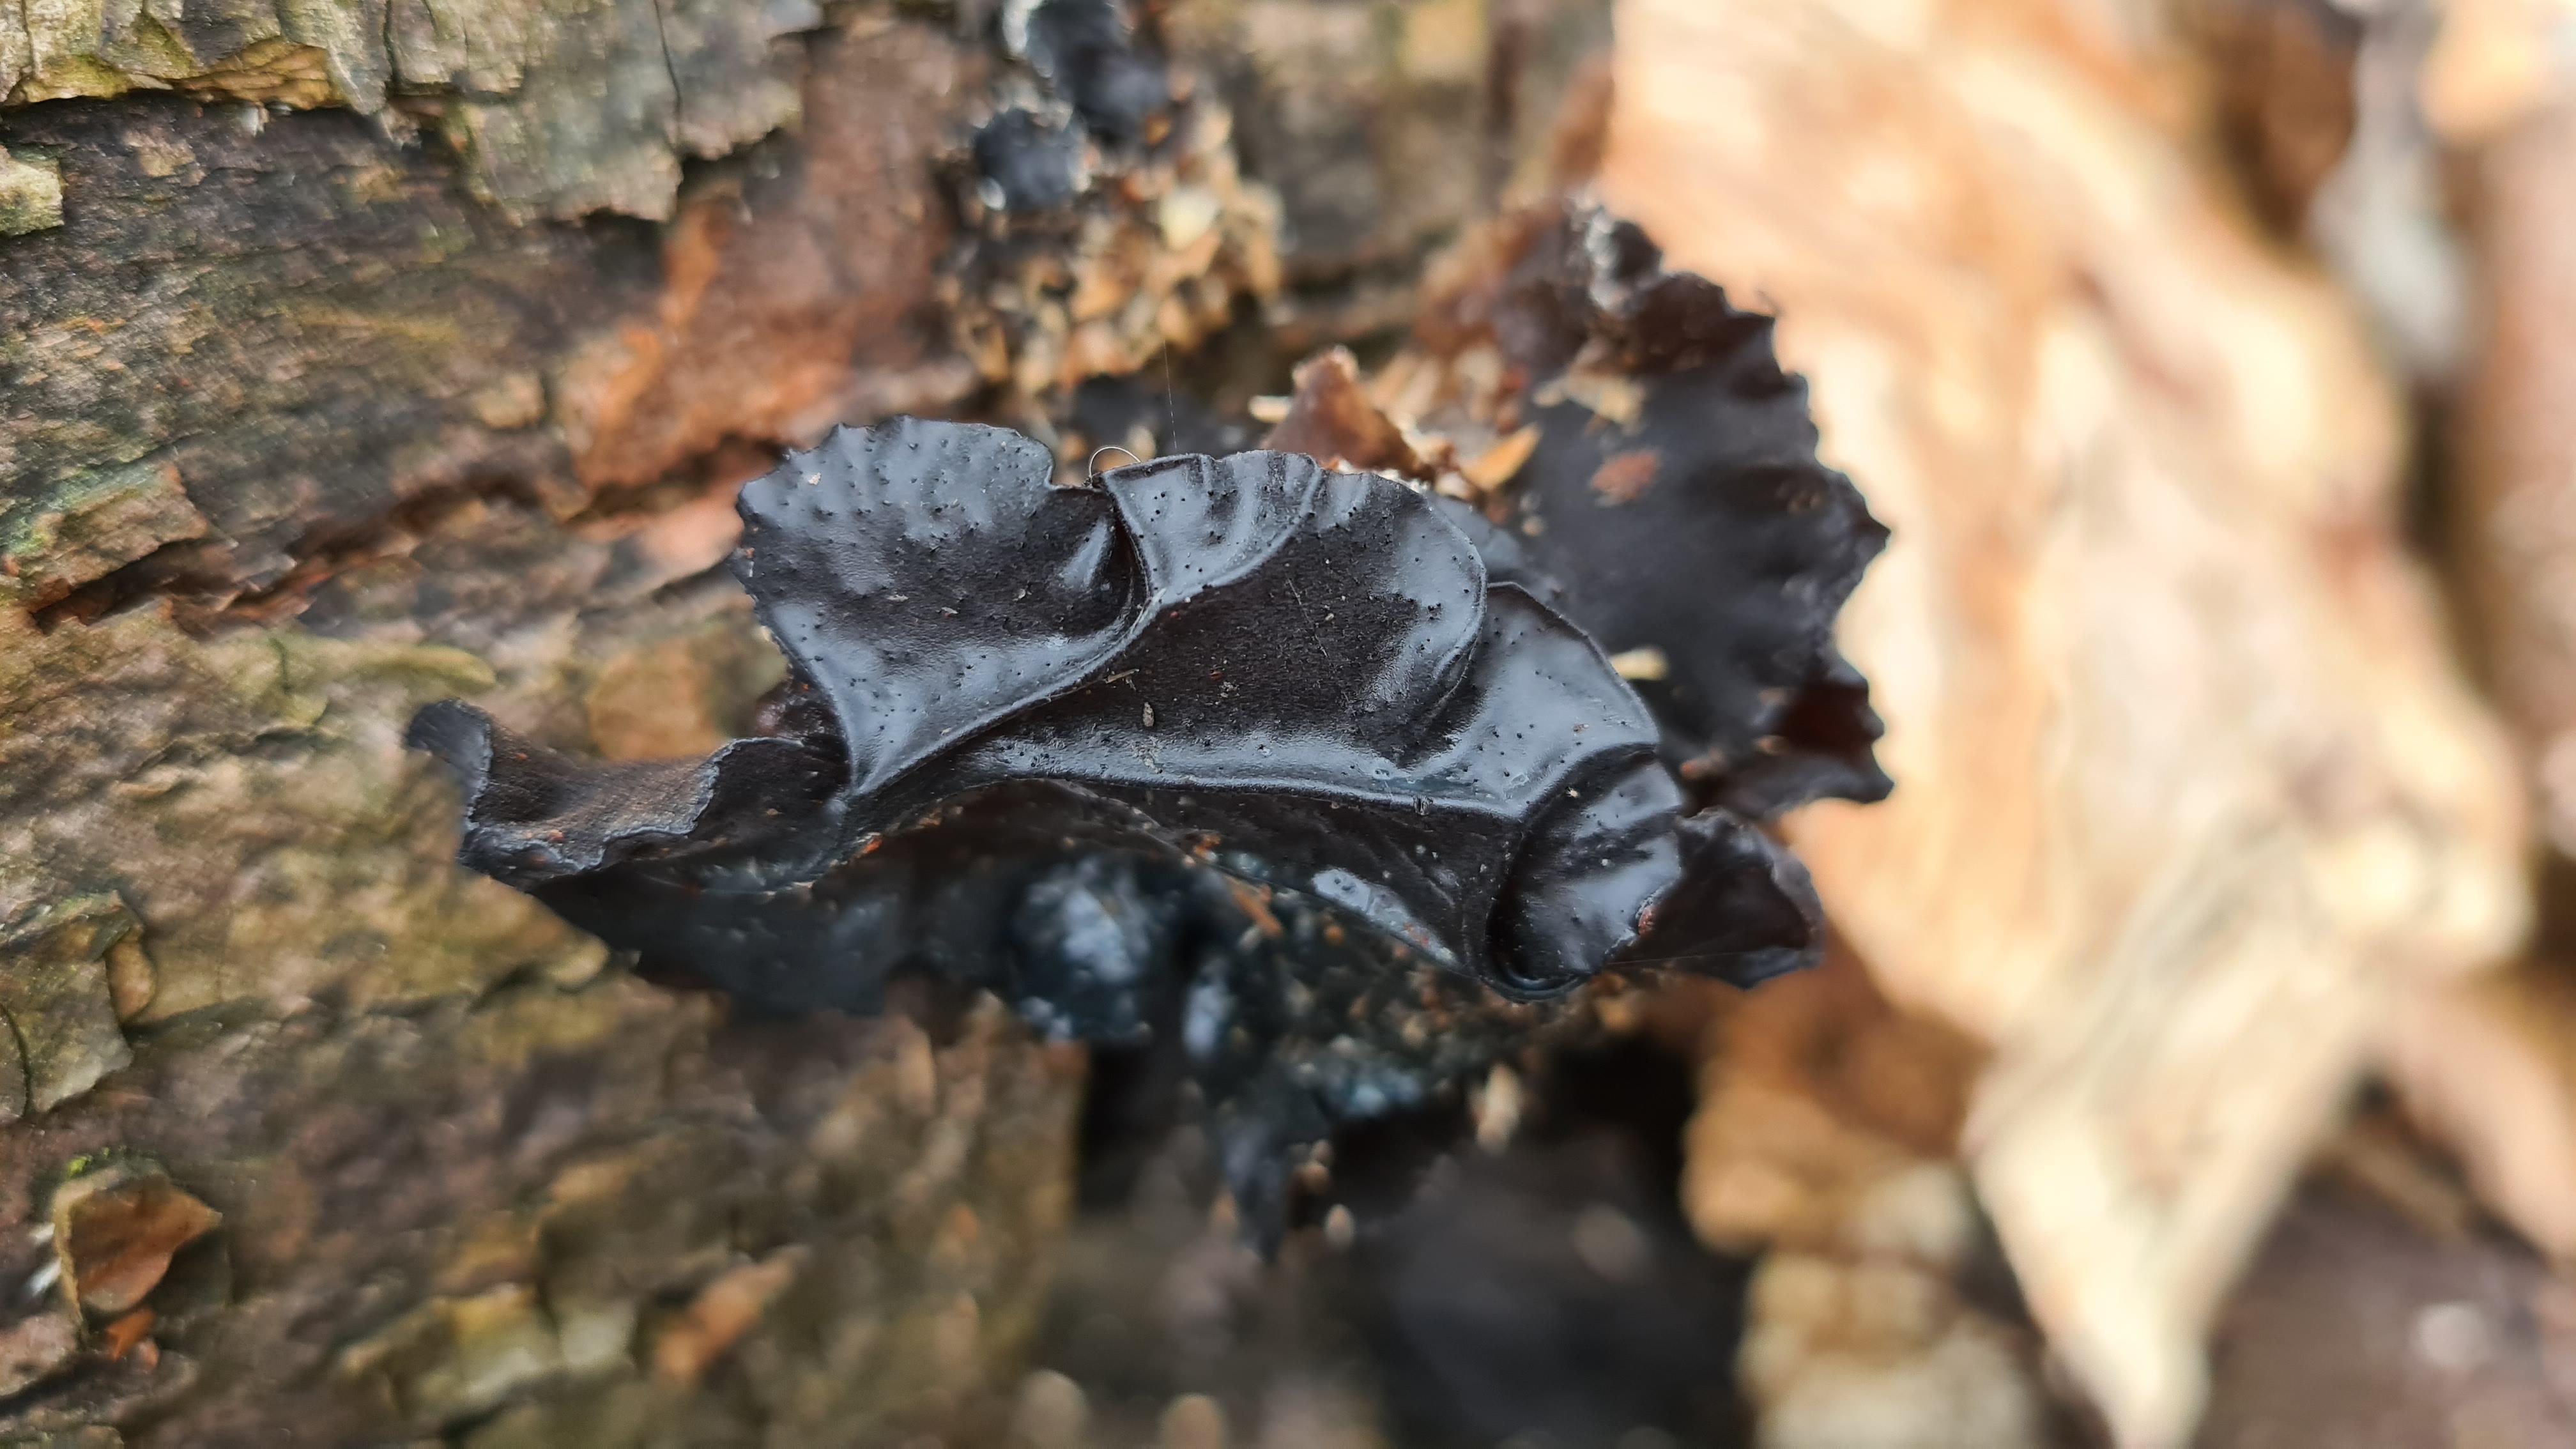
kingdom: Fungi
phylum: Basidiomycota
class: Agaricomycetes
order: Auriculariales
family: Auriculariaceae
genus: Exidia
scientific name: Exidia glandulosa
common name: ege-bævretop
